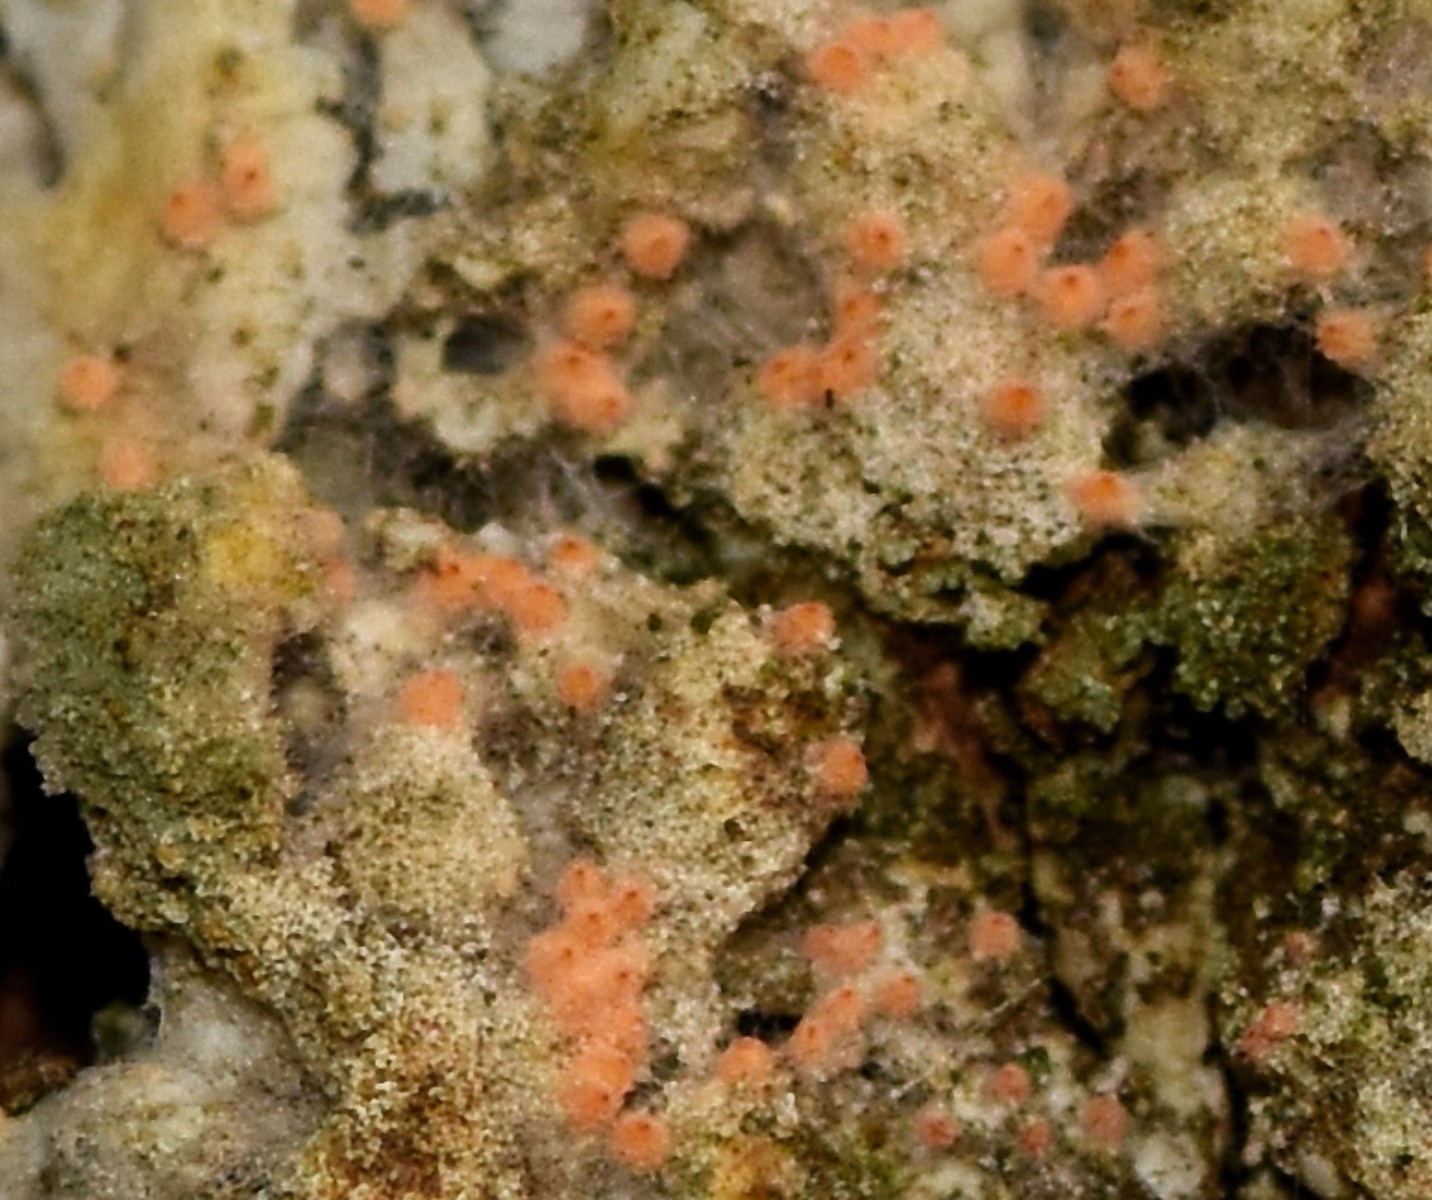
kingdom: Fungi
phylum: Ascomycota
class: Sordariomycetes
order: Hypocreales
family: Bionectriaceae
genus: Paranectria
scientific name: Paranectria oropensis
